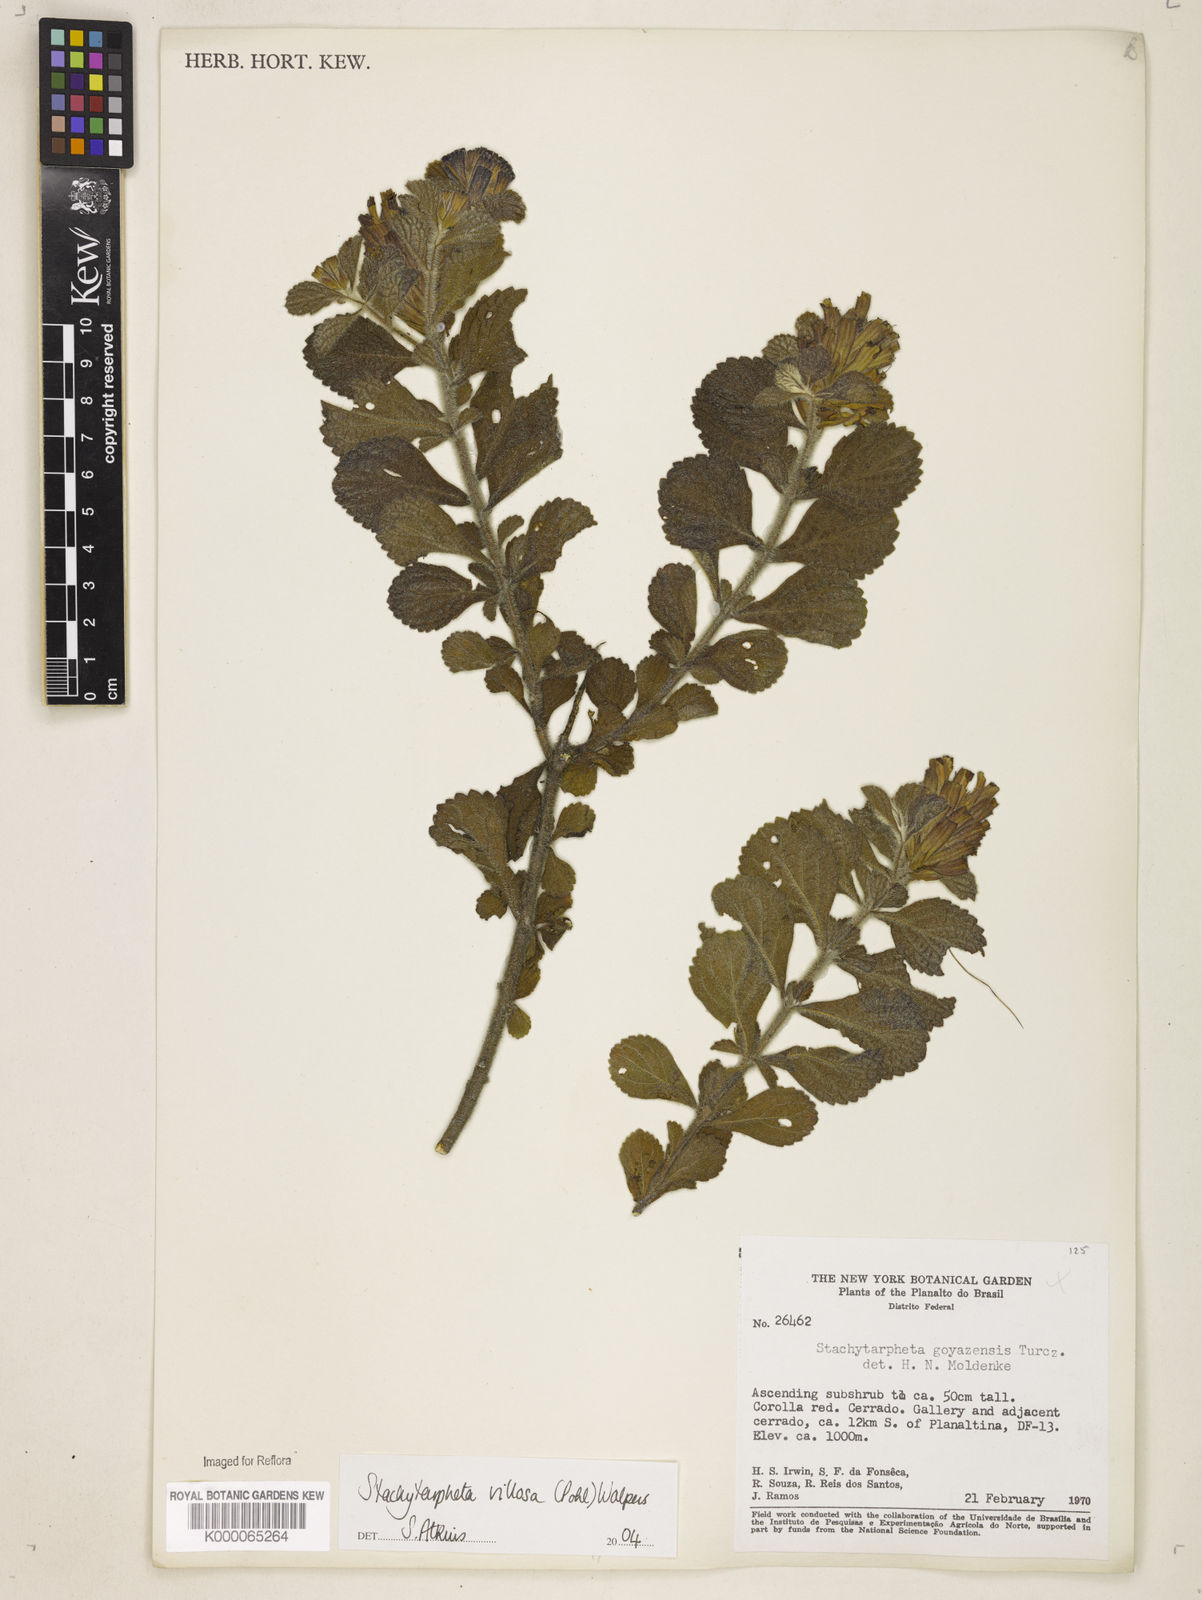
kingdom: Plantae
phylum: Tracheophyta
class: Magnoliopsida
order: Lamiales
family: Verbenaceae
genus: Stachytarpheta
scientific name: Stachytarpheta villosa
